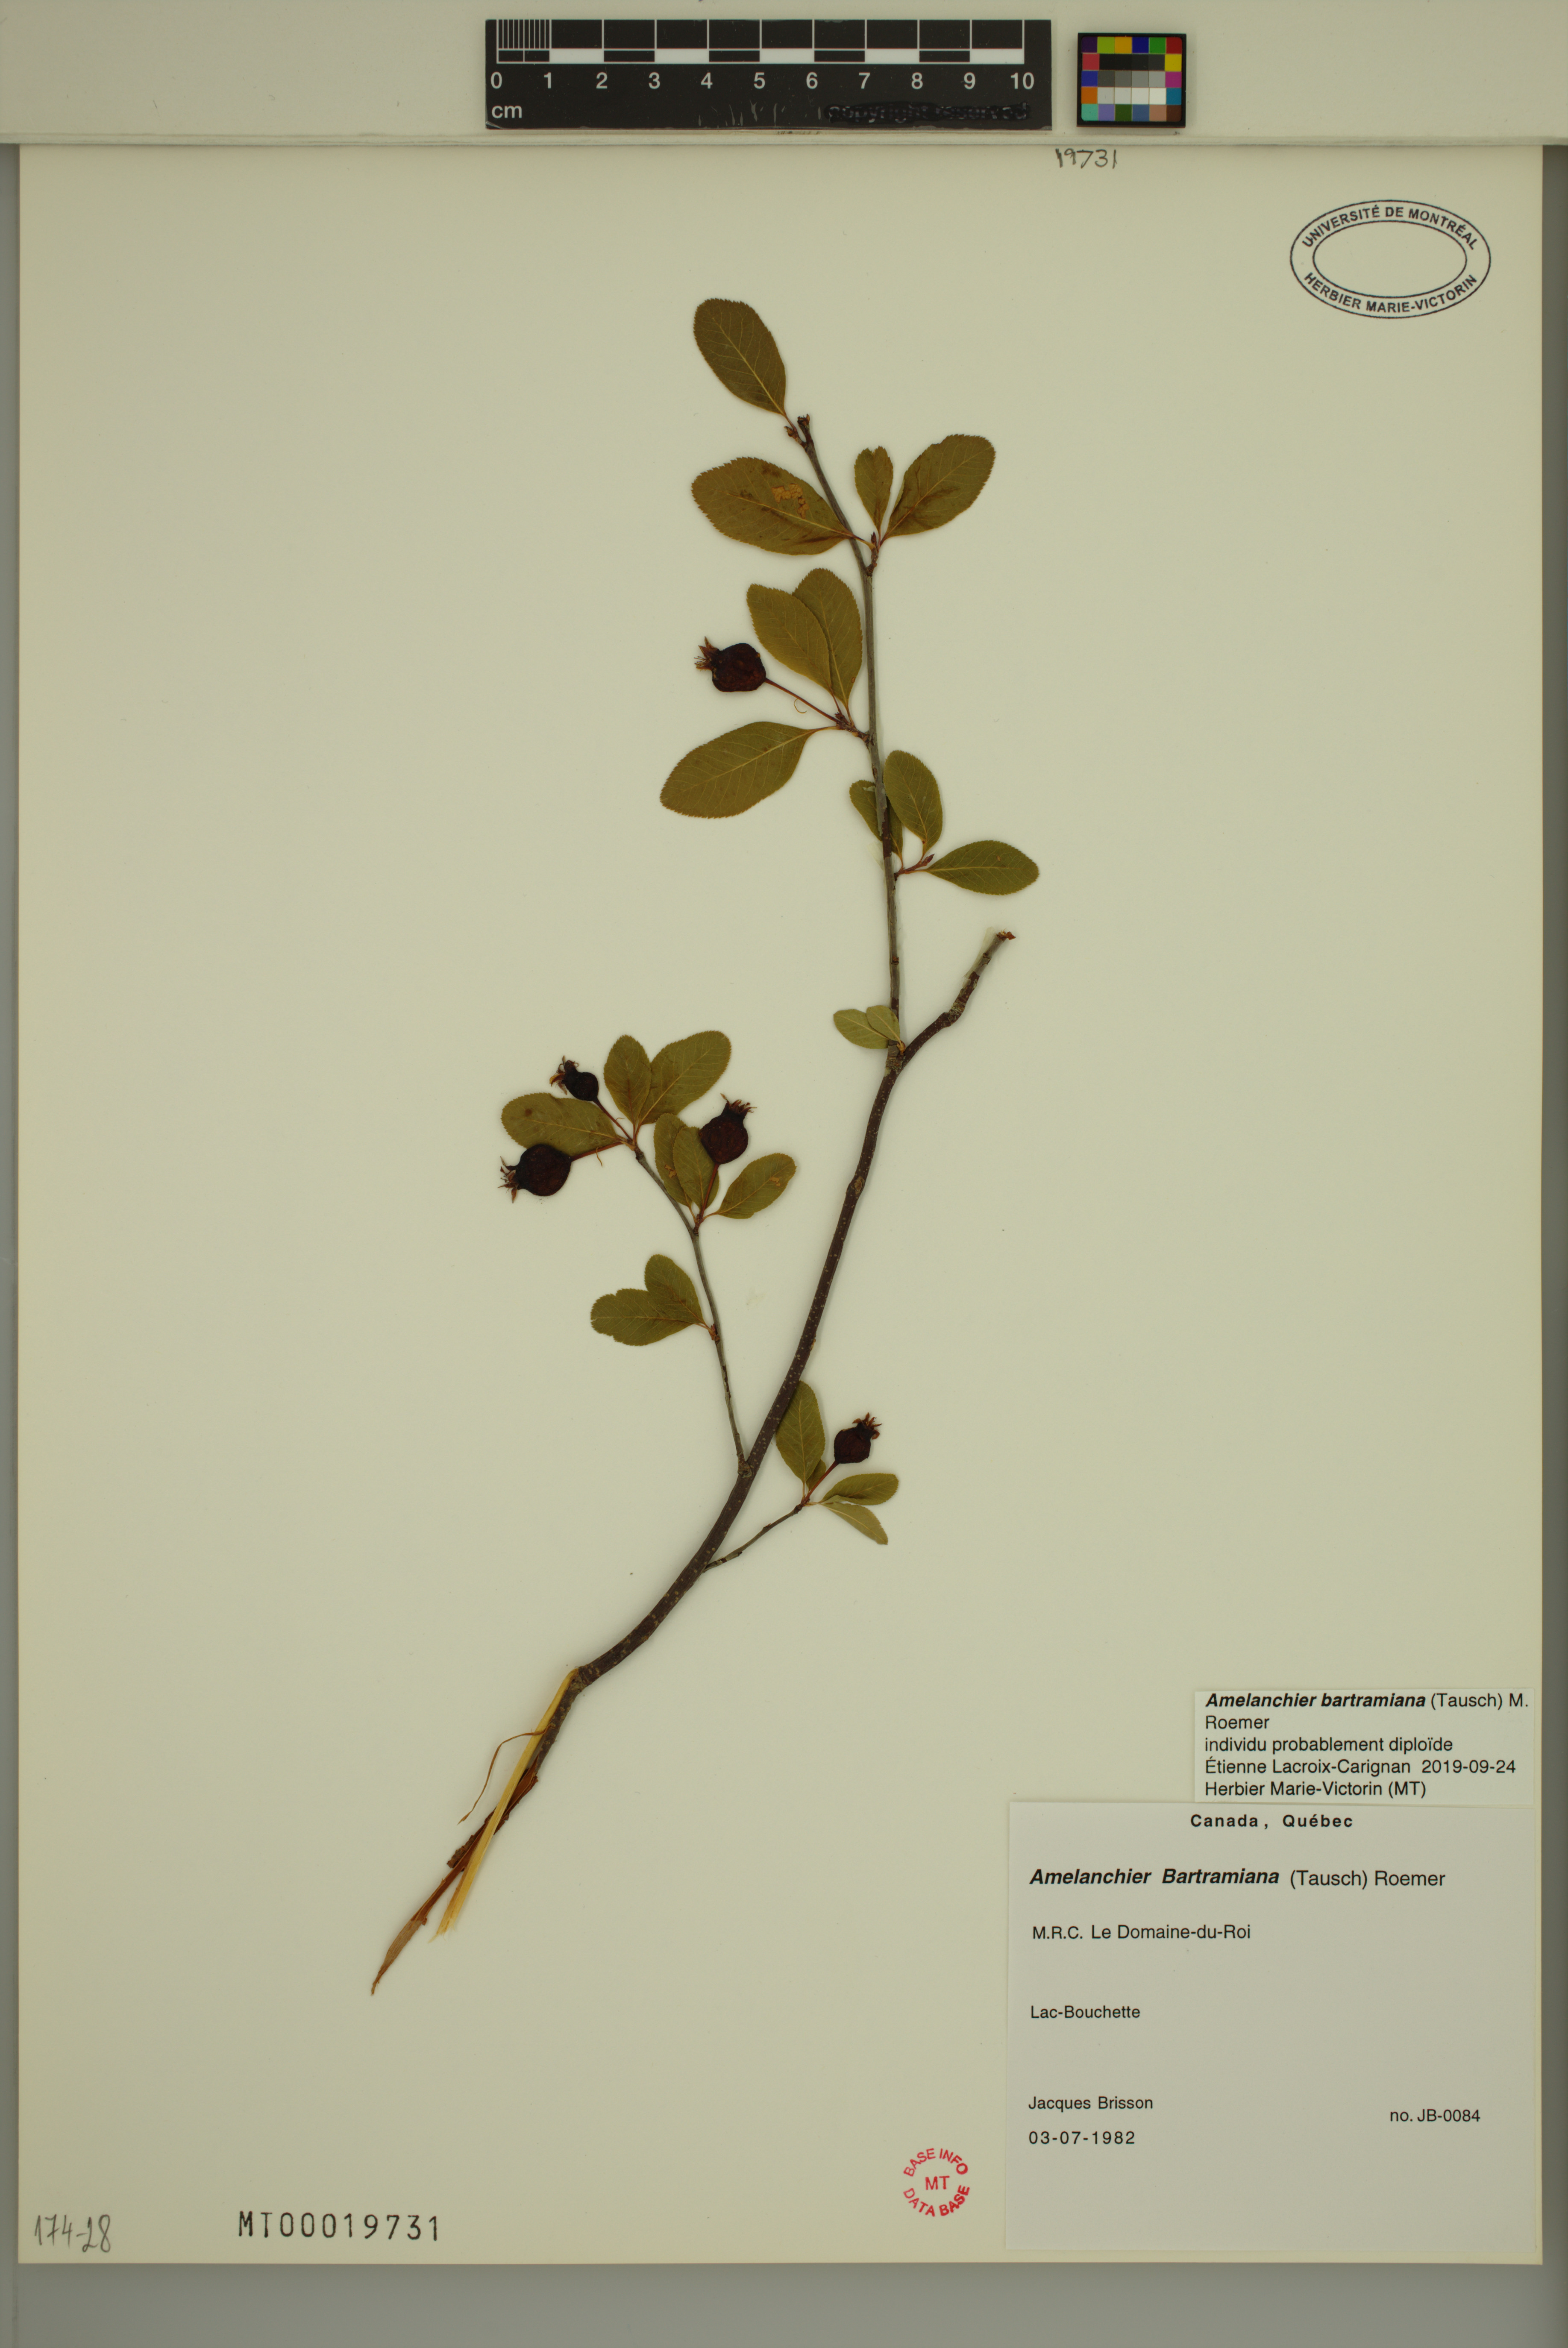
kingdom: Plantae
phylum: Tracheophyta
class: Magnoliopsida
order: Rosales
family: Rosaceae
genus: Amelanchier
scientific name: Amelanchier bartramiana
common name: Mountain serviceberry
